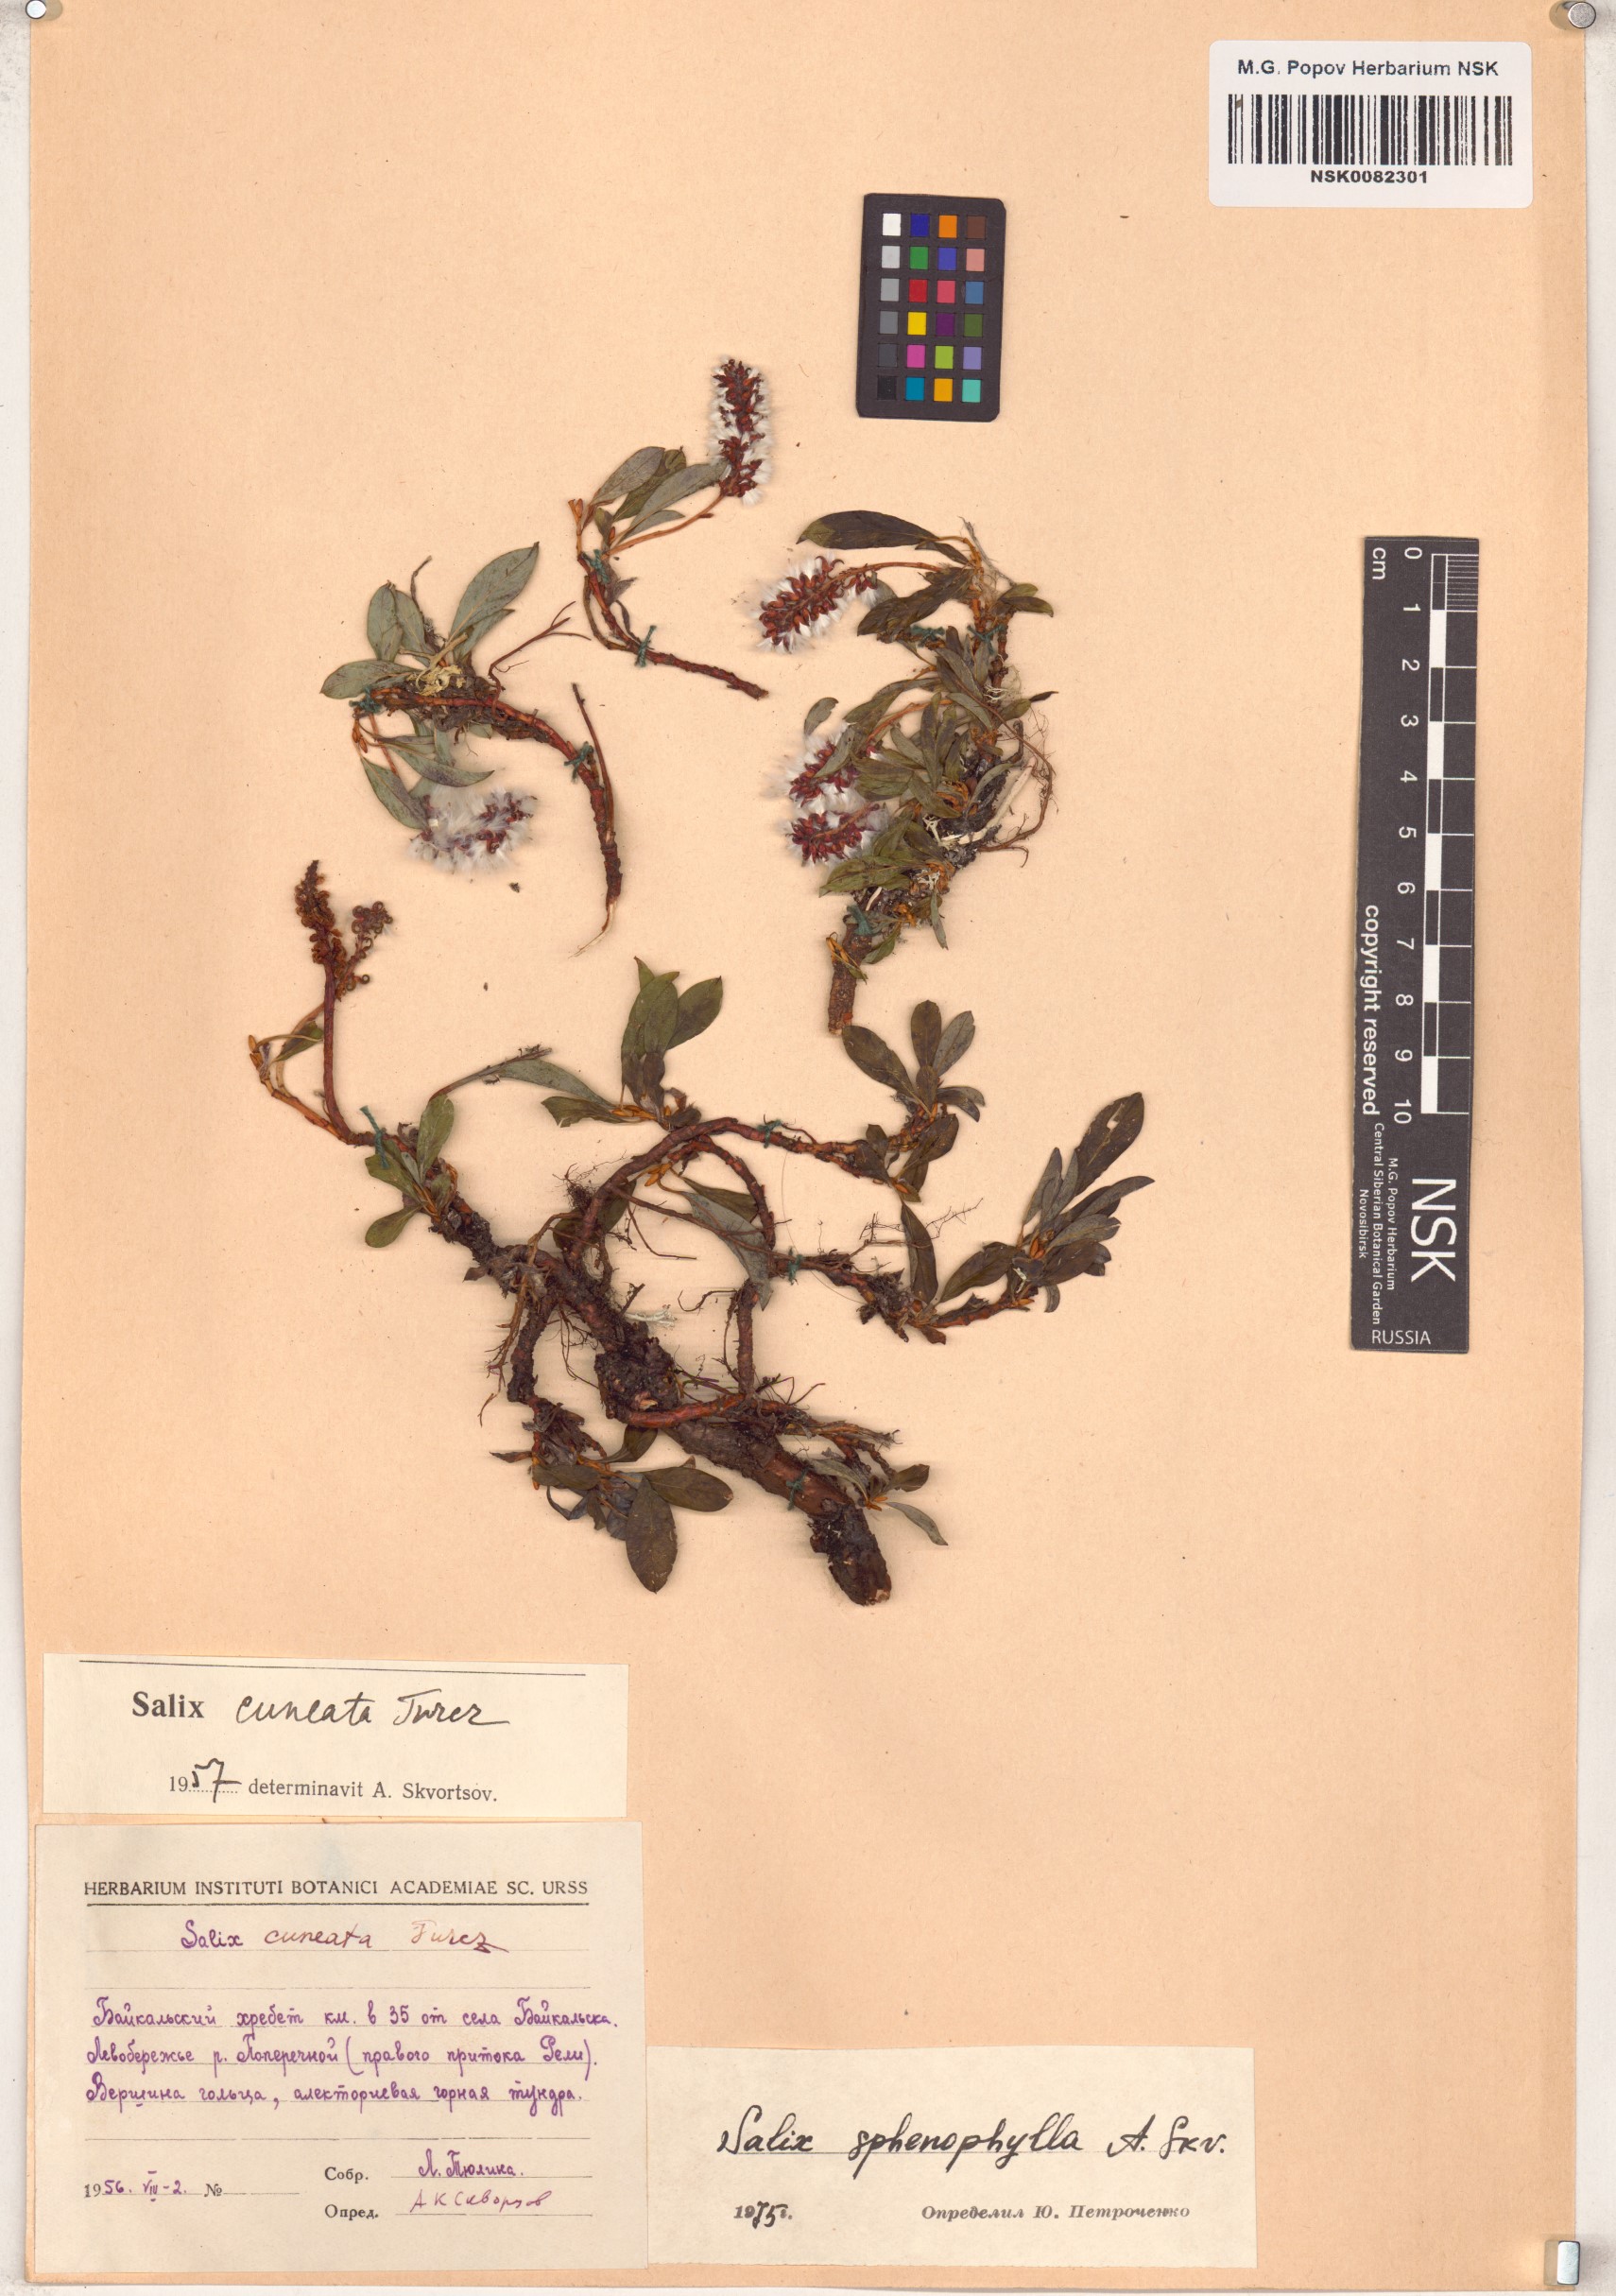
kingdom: Plantae
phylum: Tracheophyta
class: Magnoliopsida
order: Malpighiales
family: Salicaceae
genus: Salix
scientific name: Salix sphenophylla
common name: Wedge-leaved willow
